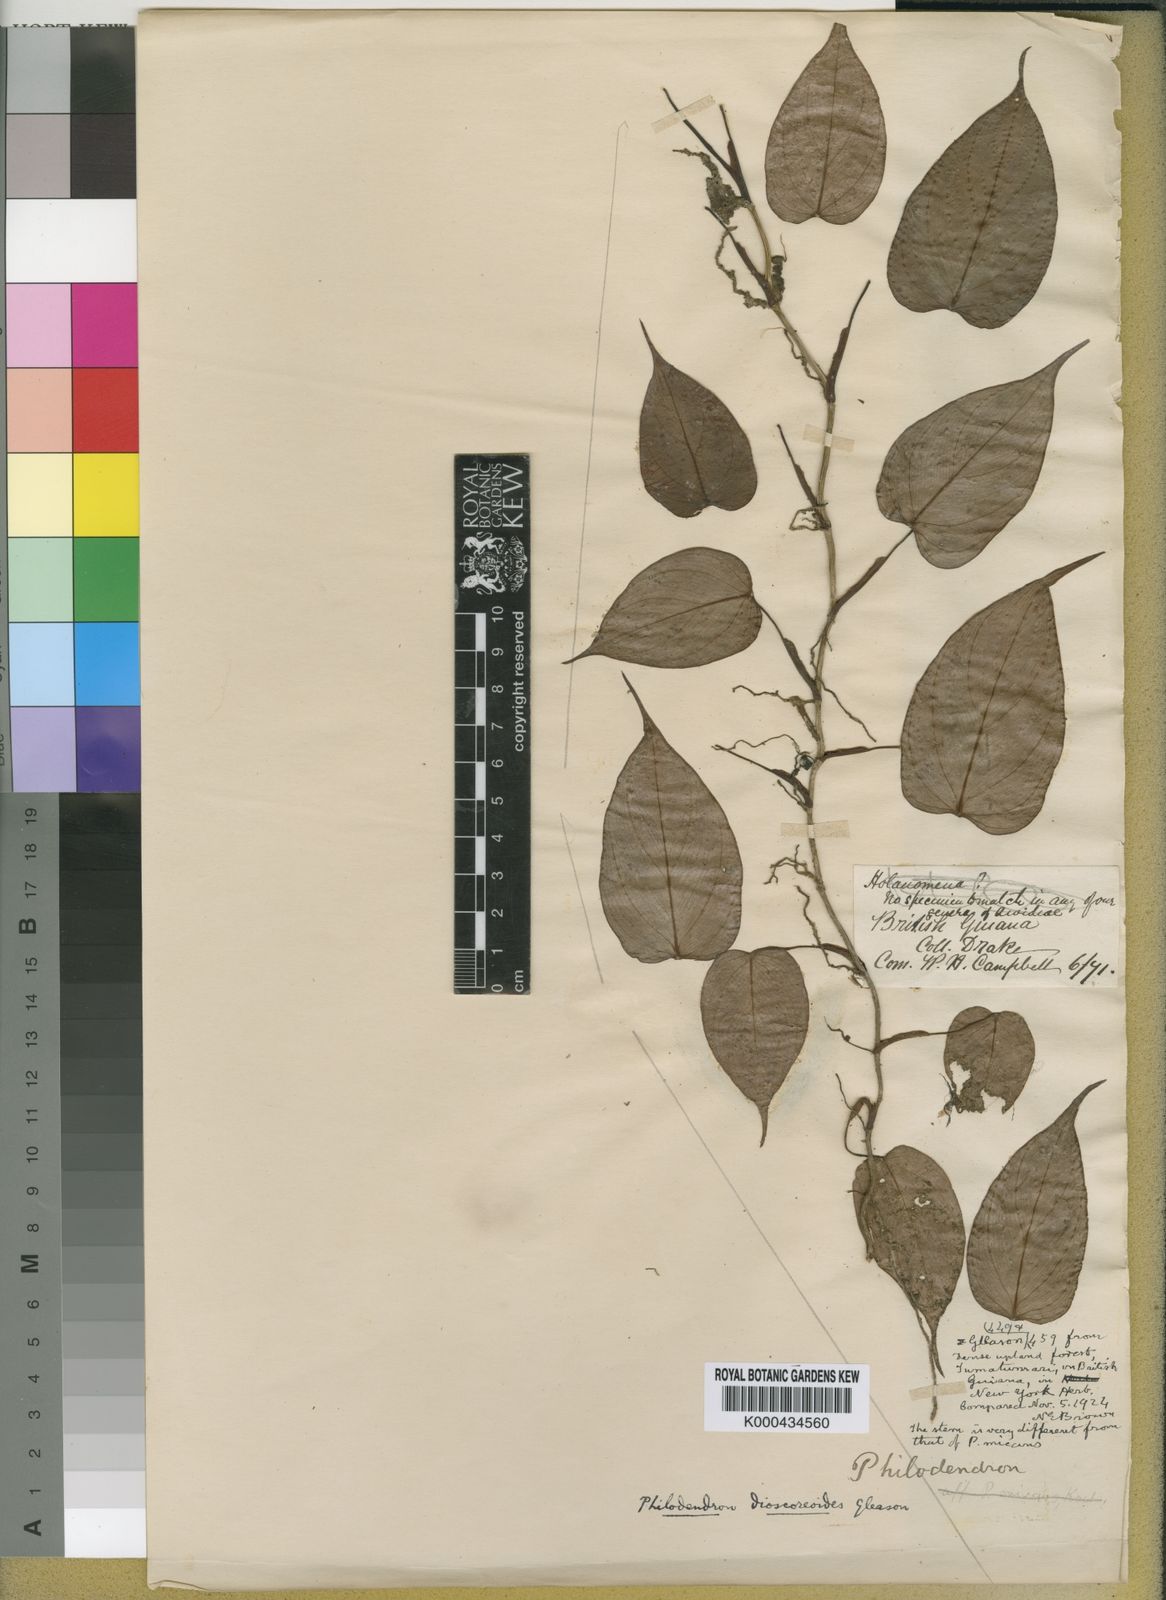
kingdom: Plantae
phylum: Tracheophyta
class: Liliopsida
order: Alismatales
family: Araceae
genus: Philodendron
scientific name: Philodendron dioscoreoides
